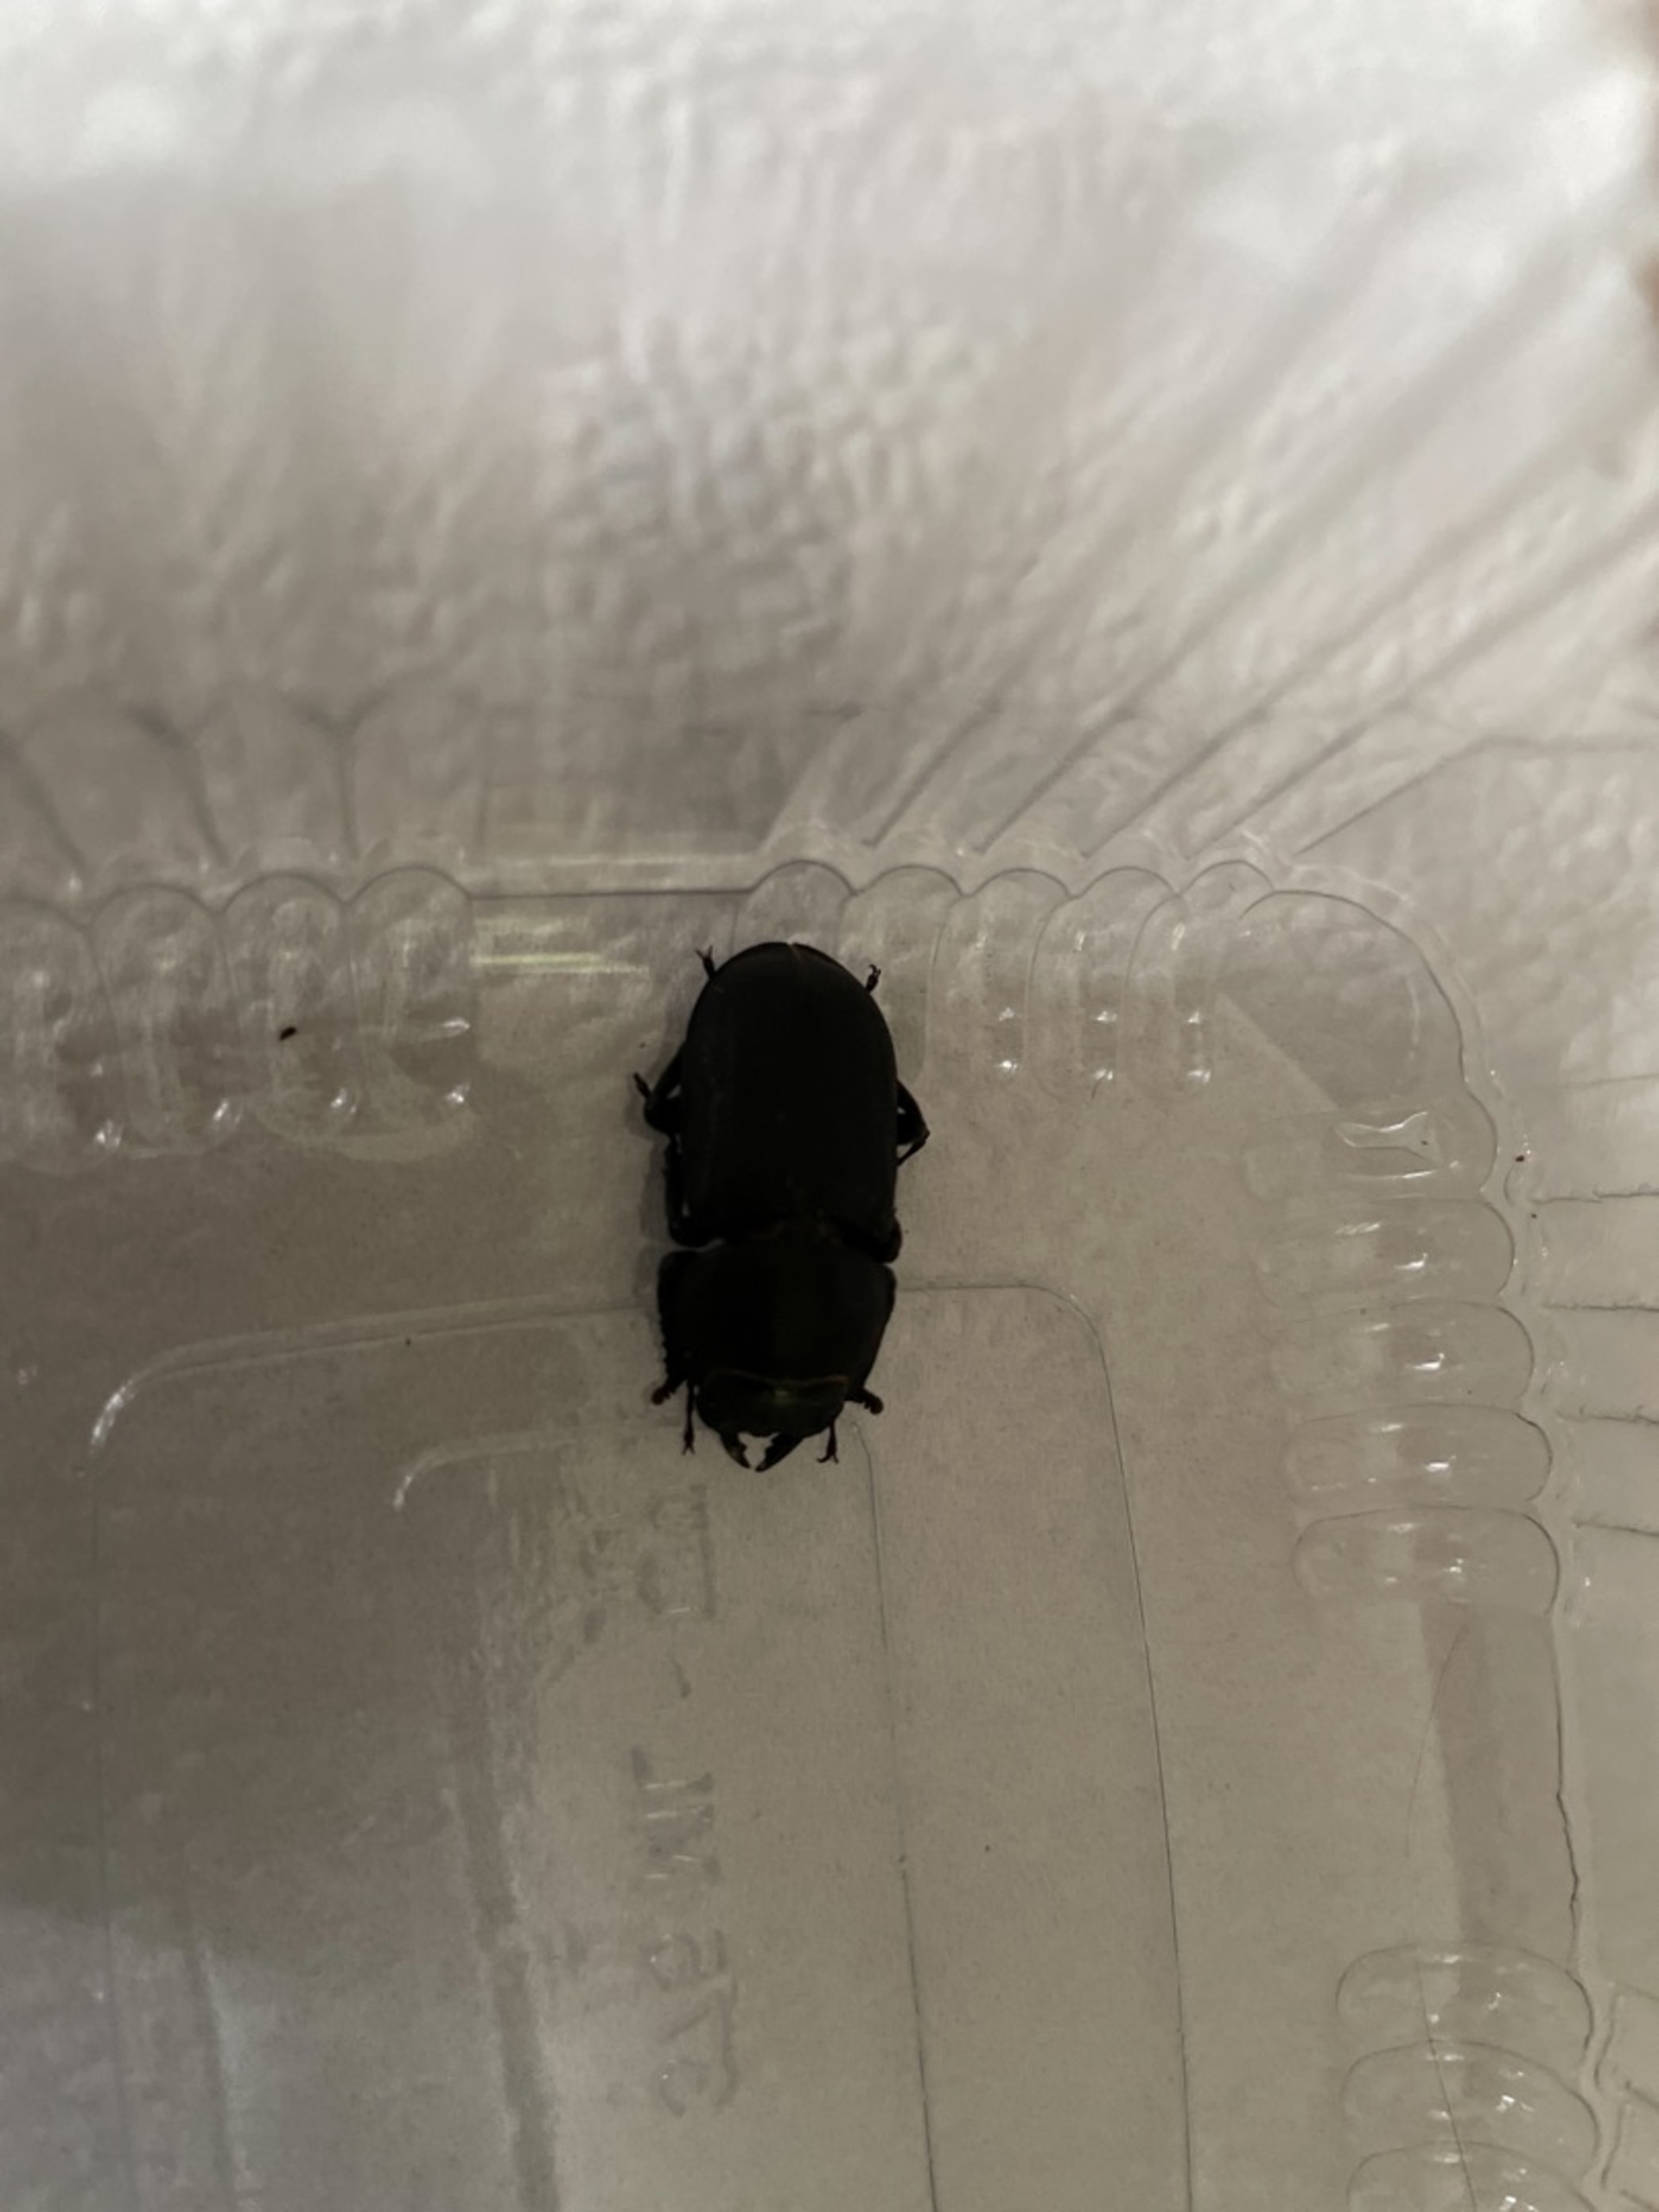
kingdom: Animalia
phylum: Arthropoda
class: Insecta
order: Coleoptera
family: Lucanidae
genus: Dorcus
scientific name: Dorcus parallelipipedus
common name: Bøghjort
